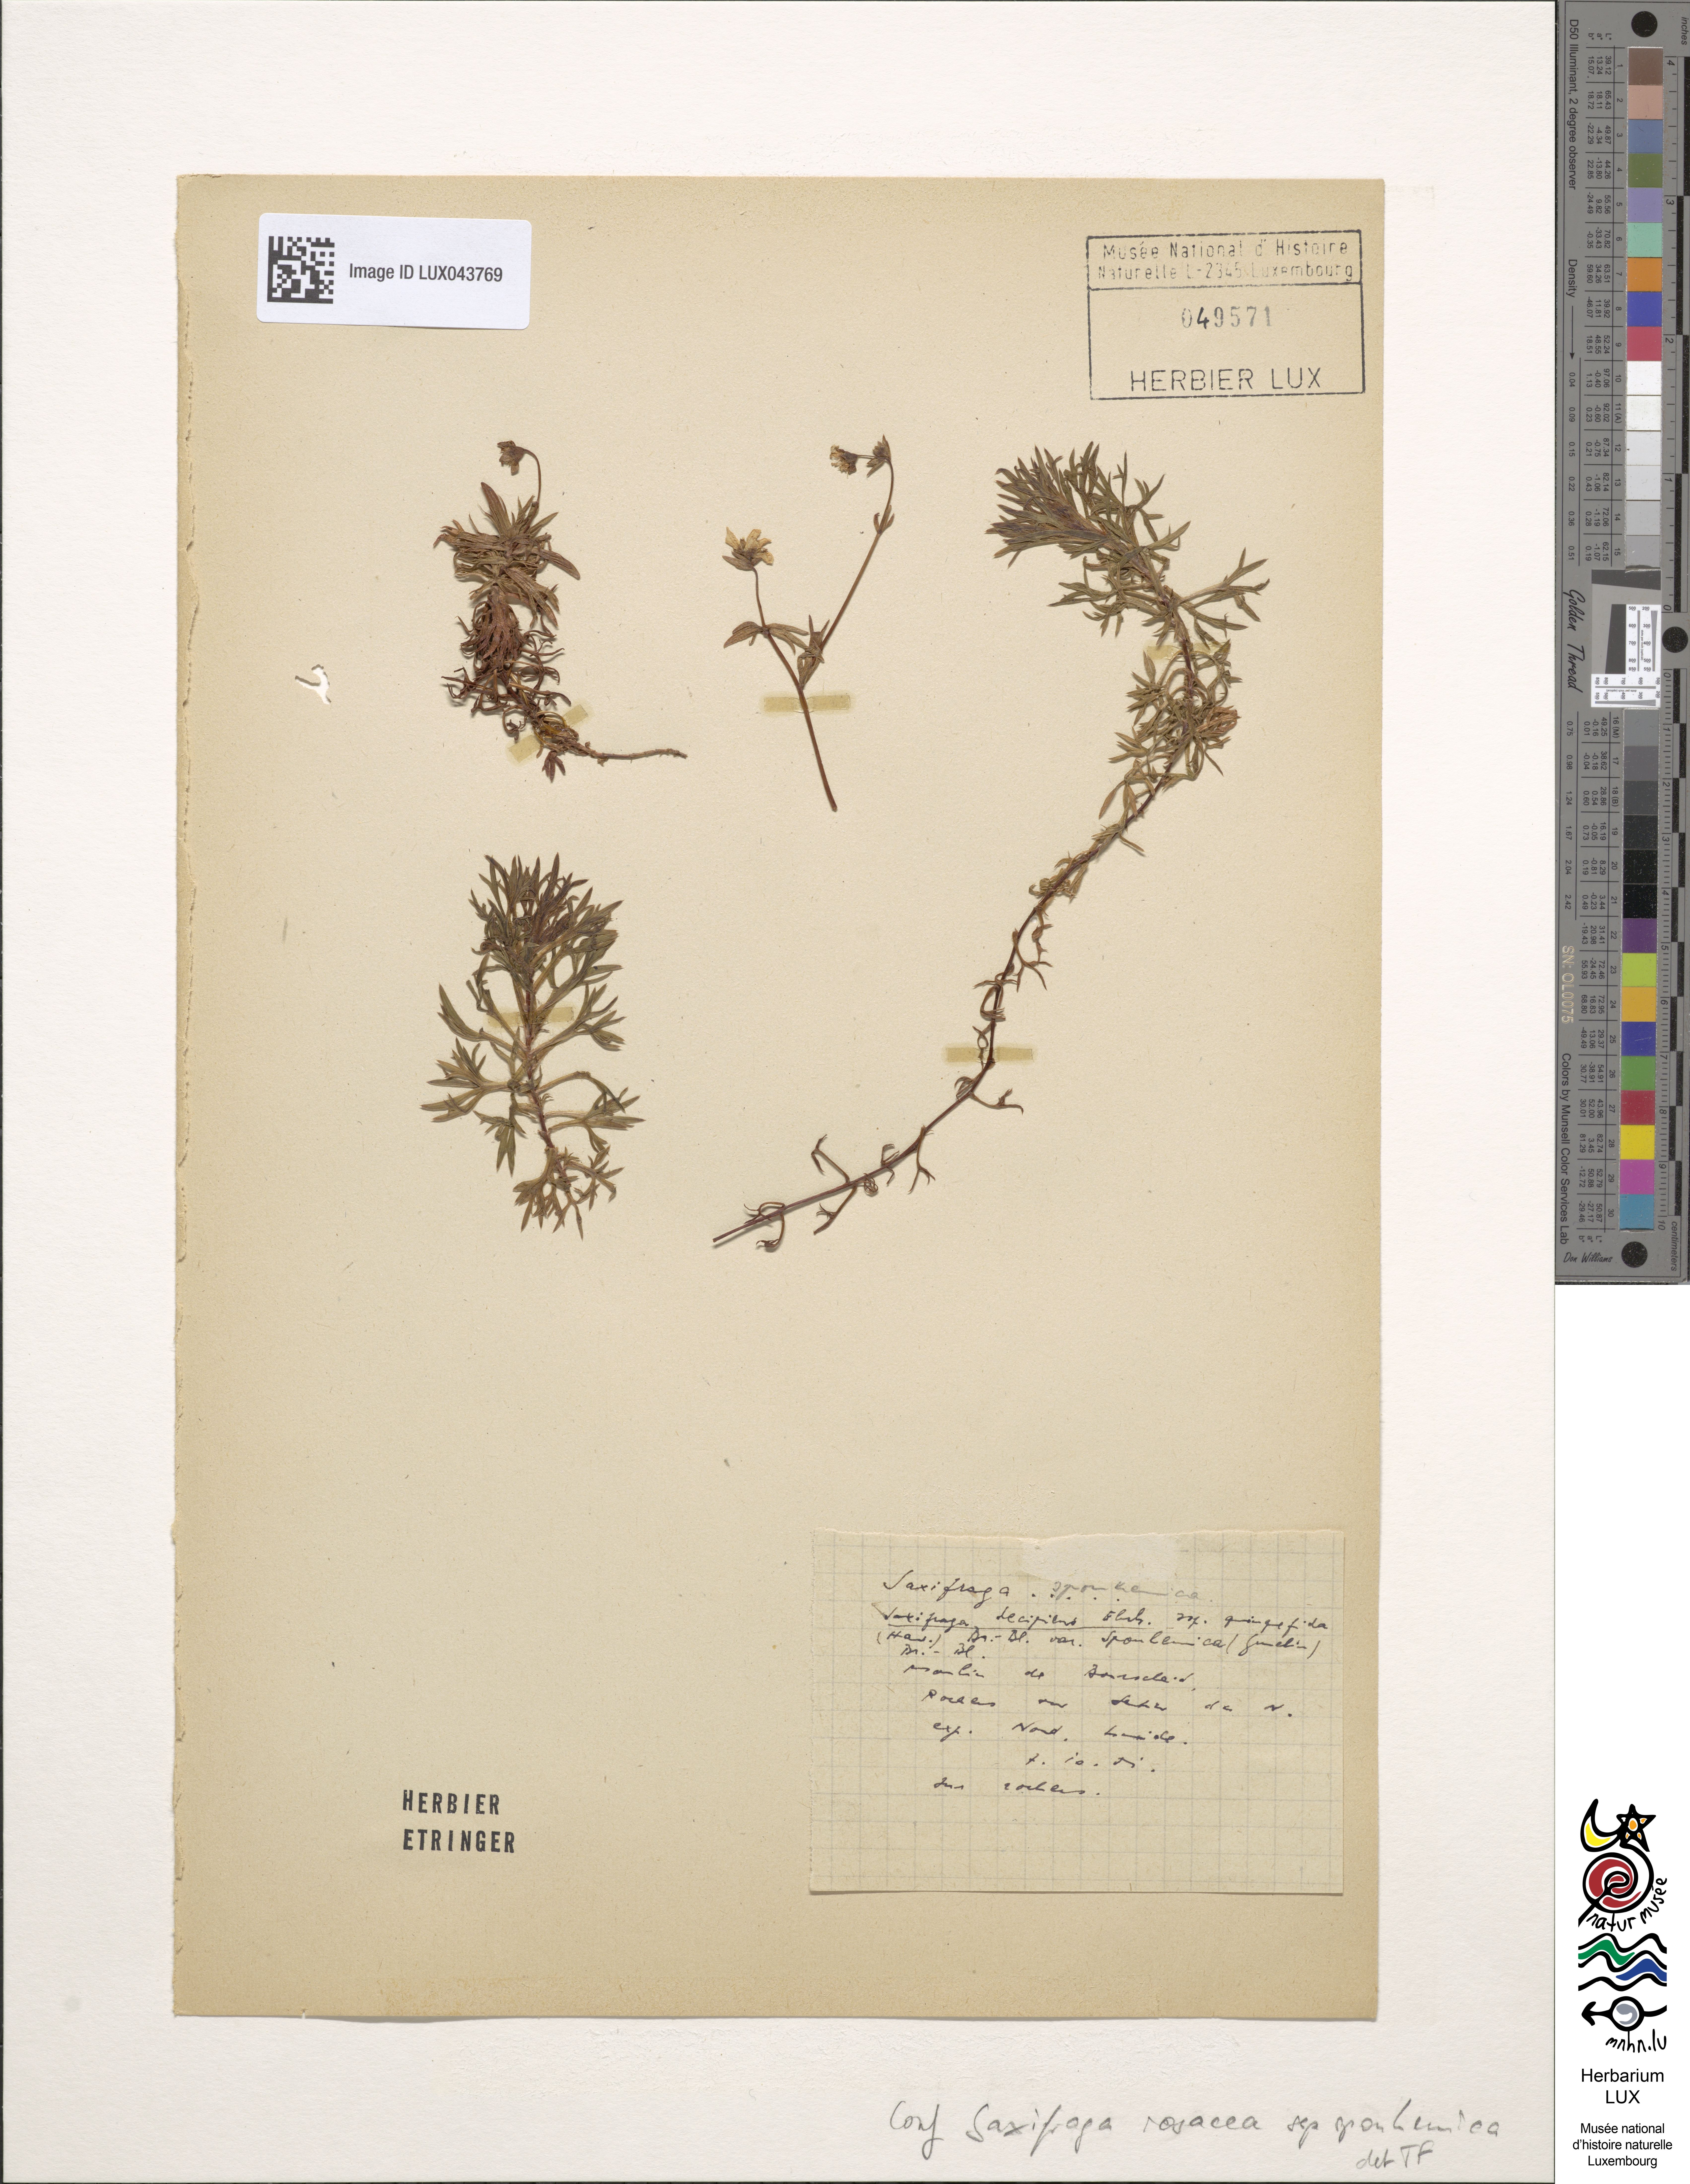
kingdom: Plantae
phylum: Tracheophyta
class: Magnoliopsida
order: Saxifragales
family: Saxifragaceae
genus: Saxifraga
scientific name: Saxifraga rosacea
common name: Irish saxifrage
